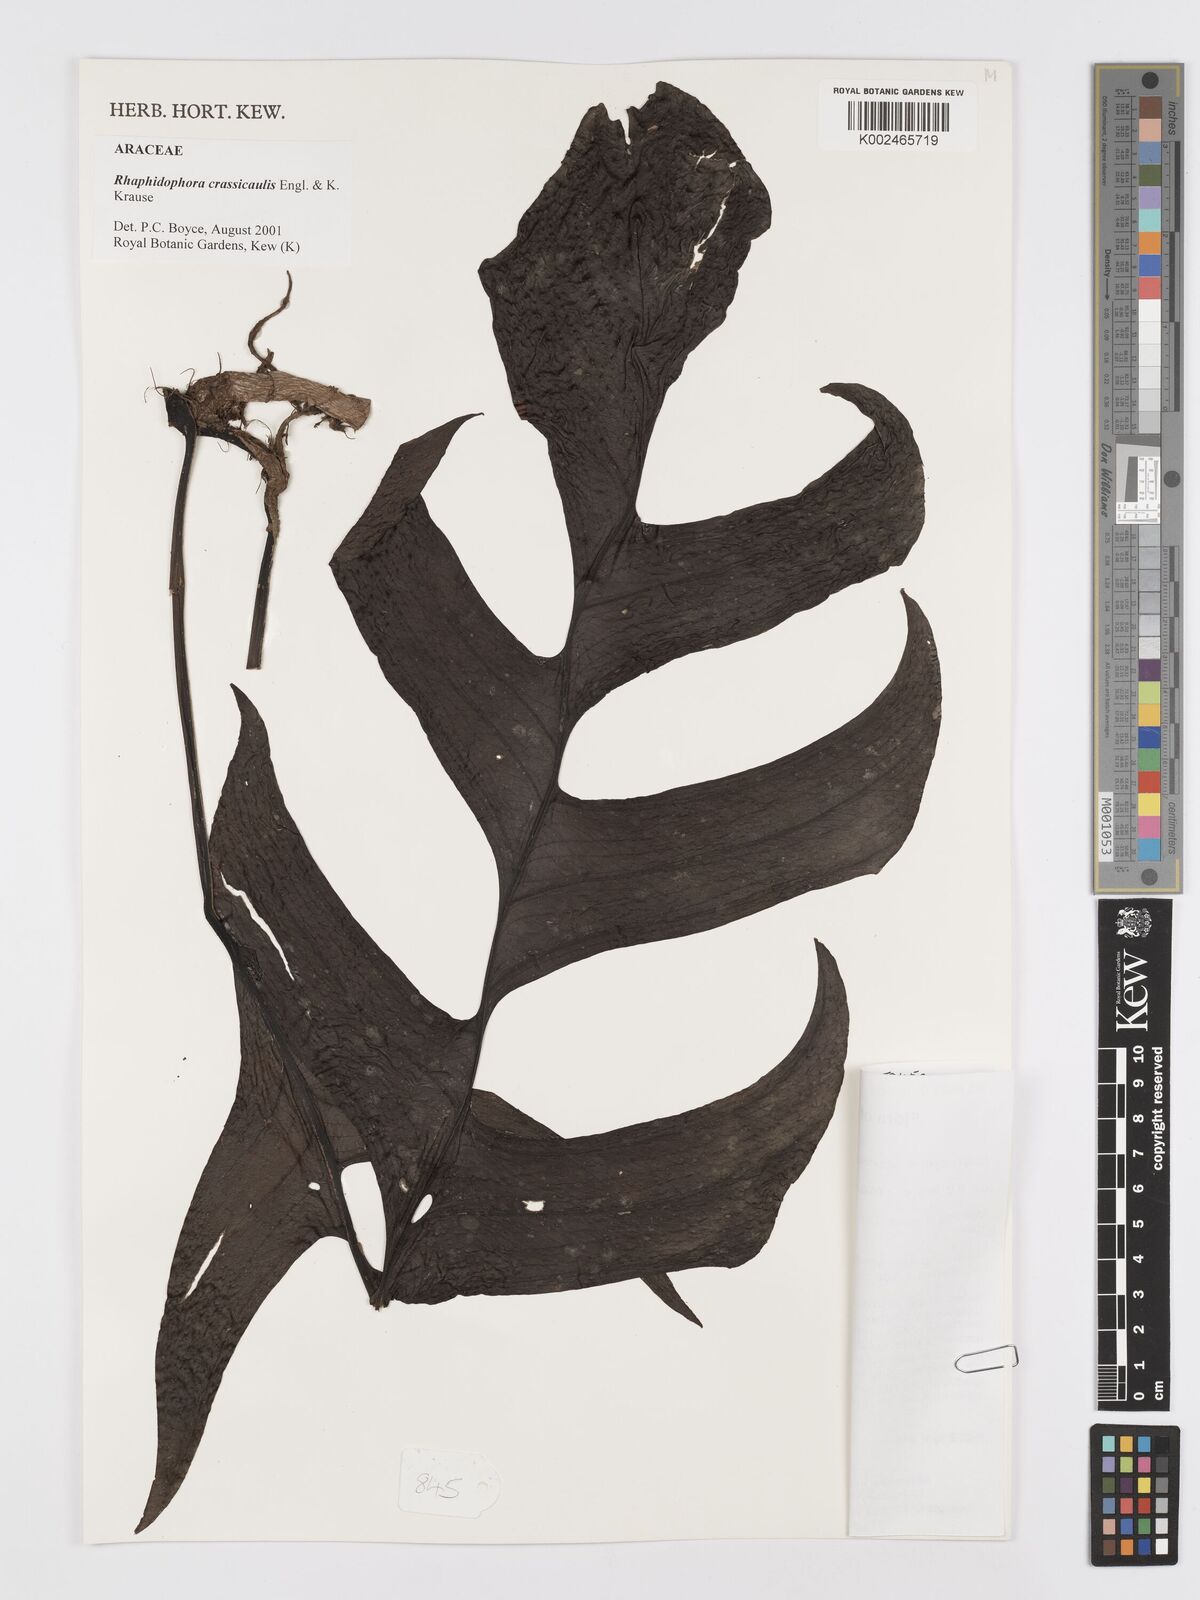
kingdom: Plantae
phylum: Tracheophyta
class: Liliopsida
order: Alismatales
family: Araceae
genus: Rhaphidophora
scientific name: Rhaphidophora crassicaulis
